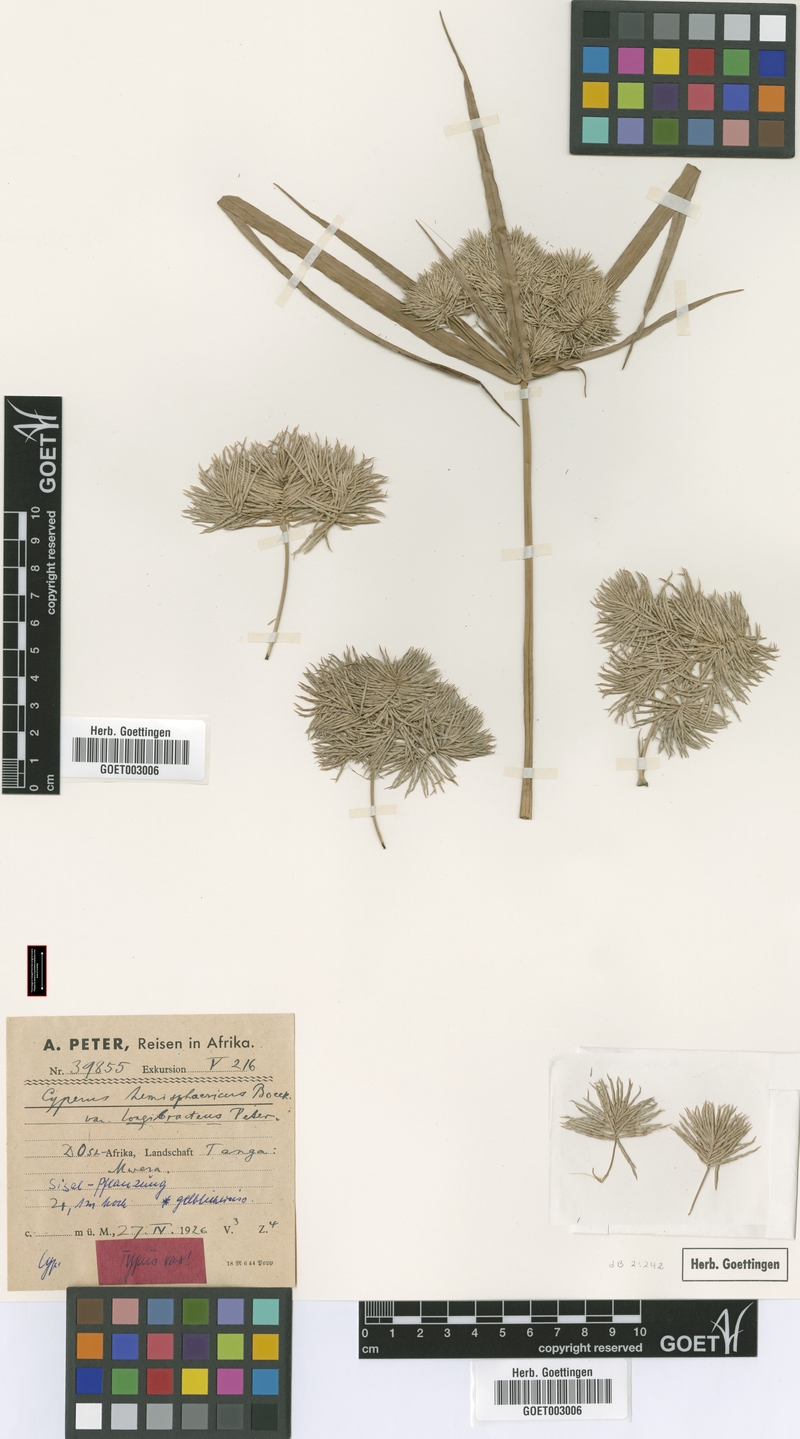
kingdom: Plantae
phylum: Tracheophyta
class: Liliopsida
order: Poales
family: Cyperaceae
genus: Cyperus
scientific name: Cyperus hemisphaericus
